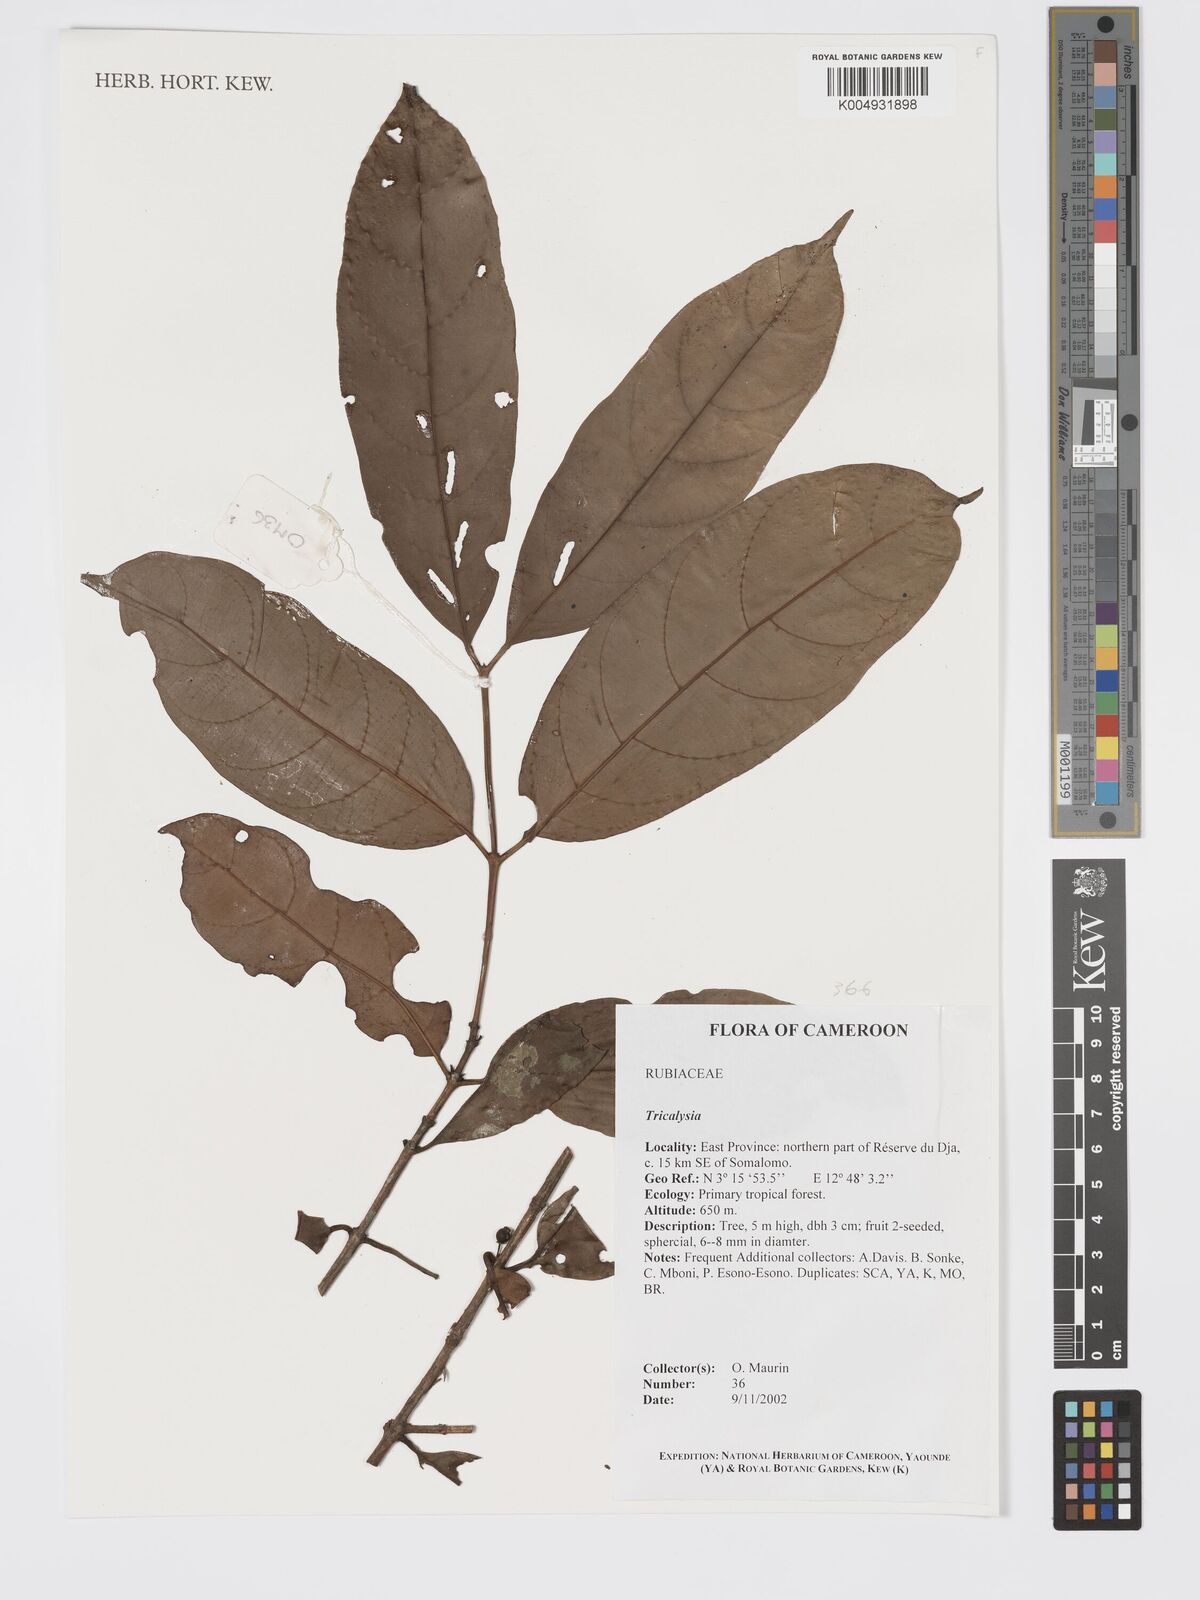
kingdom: Plantae
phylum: Tracheophyta
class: Magnoliopsida
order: Gentianales
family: Rubiaceae
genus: Tricalysia
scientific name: Tricalysia
